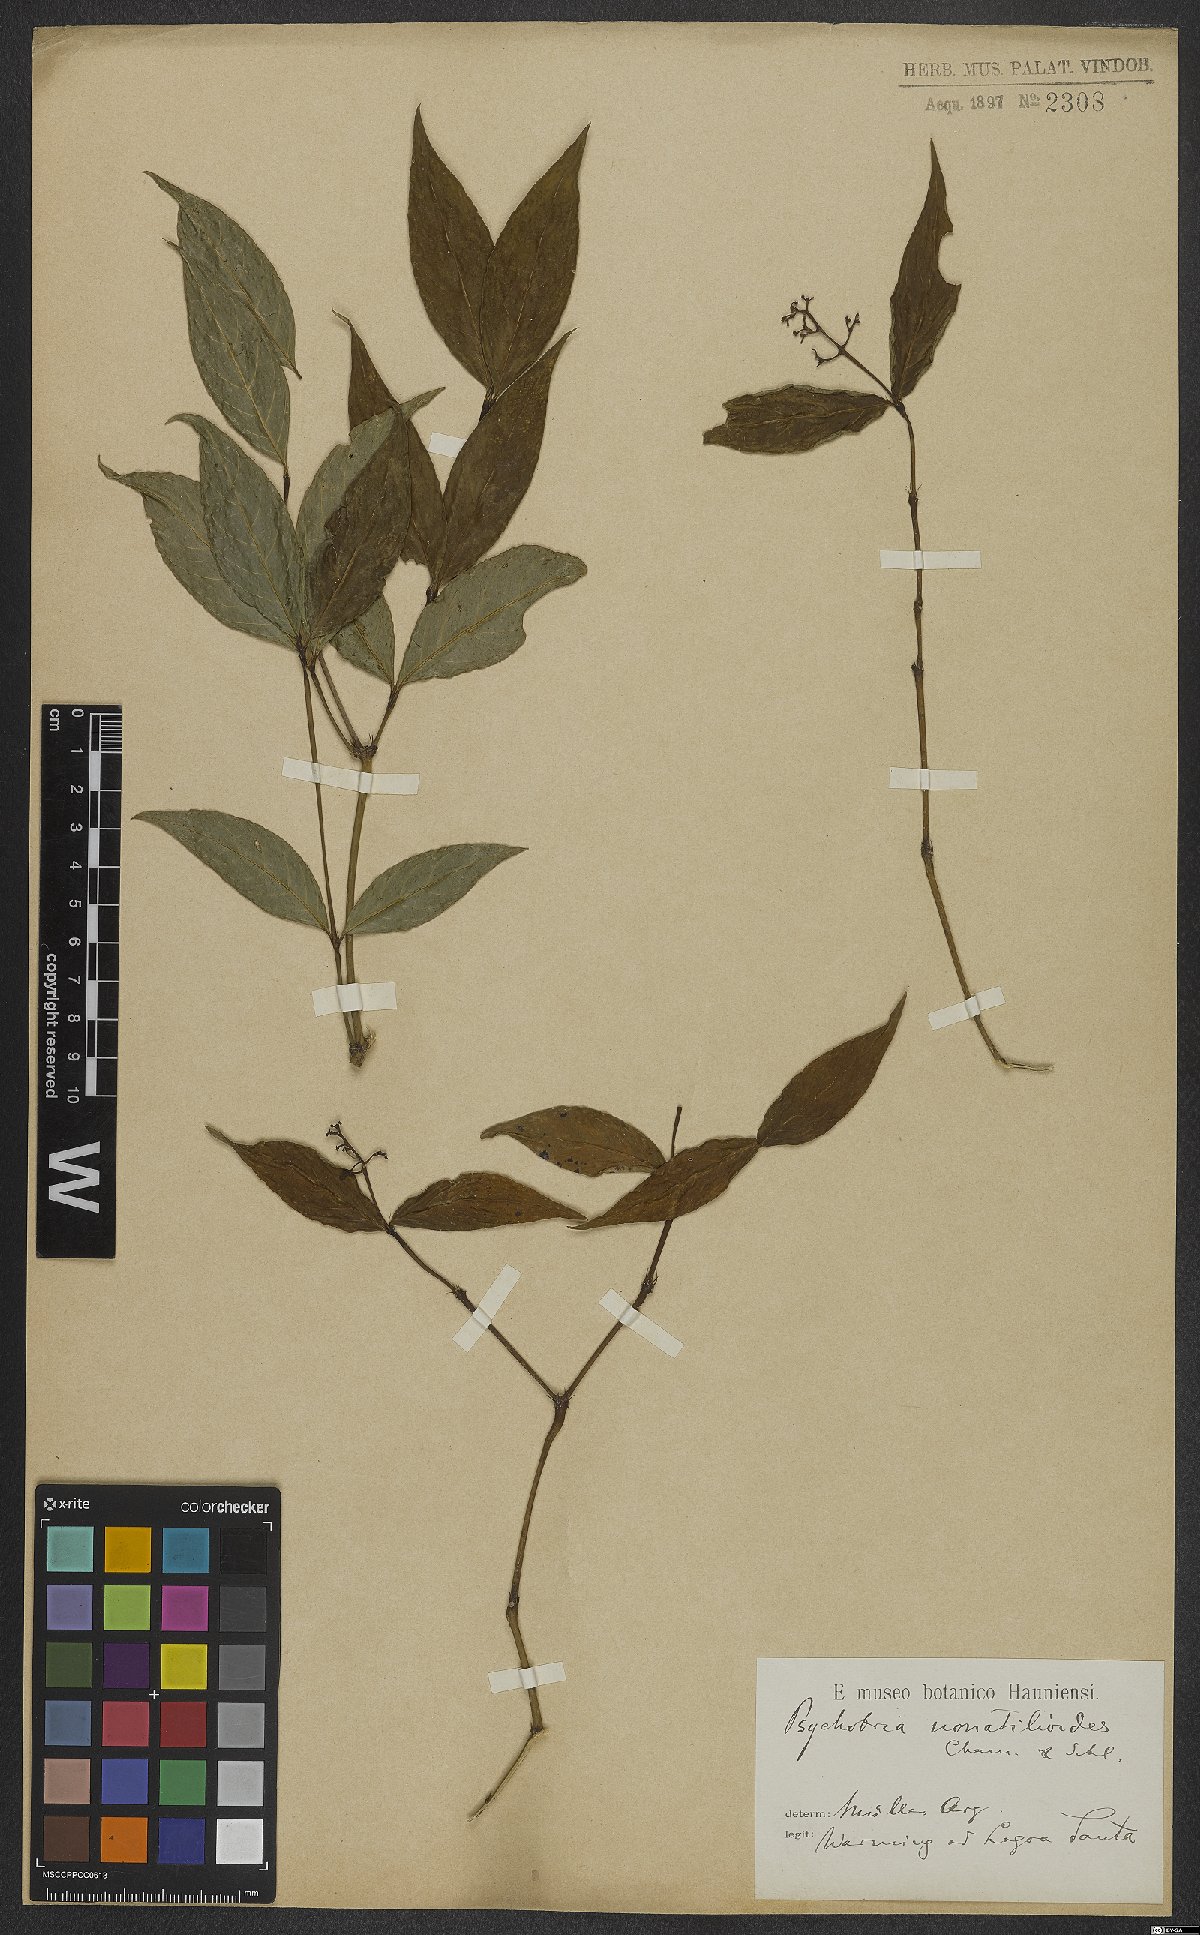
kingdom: Plantae
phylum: Tracheophyta
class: Magnoliopsida
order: Gentianales
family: Rubiaceae
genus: Palicourea
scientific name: Palicourea patens
